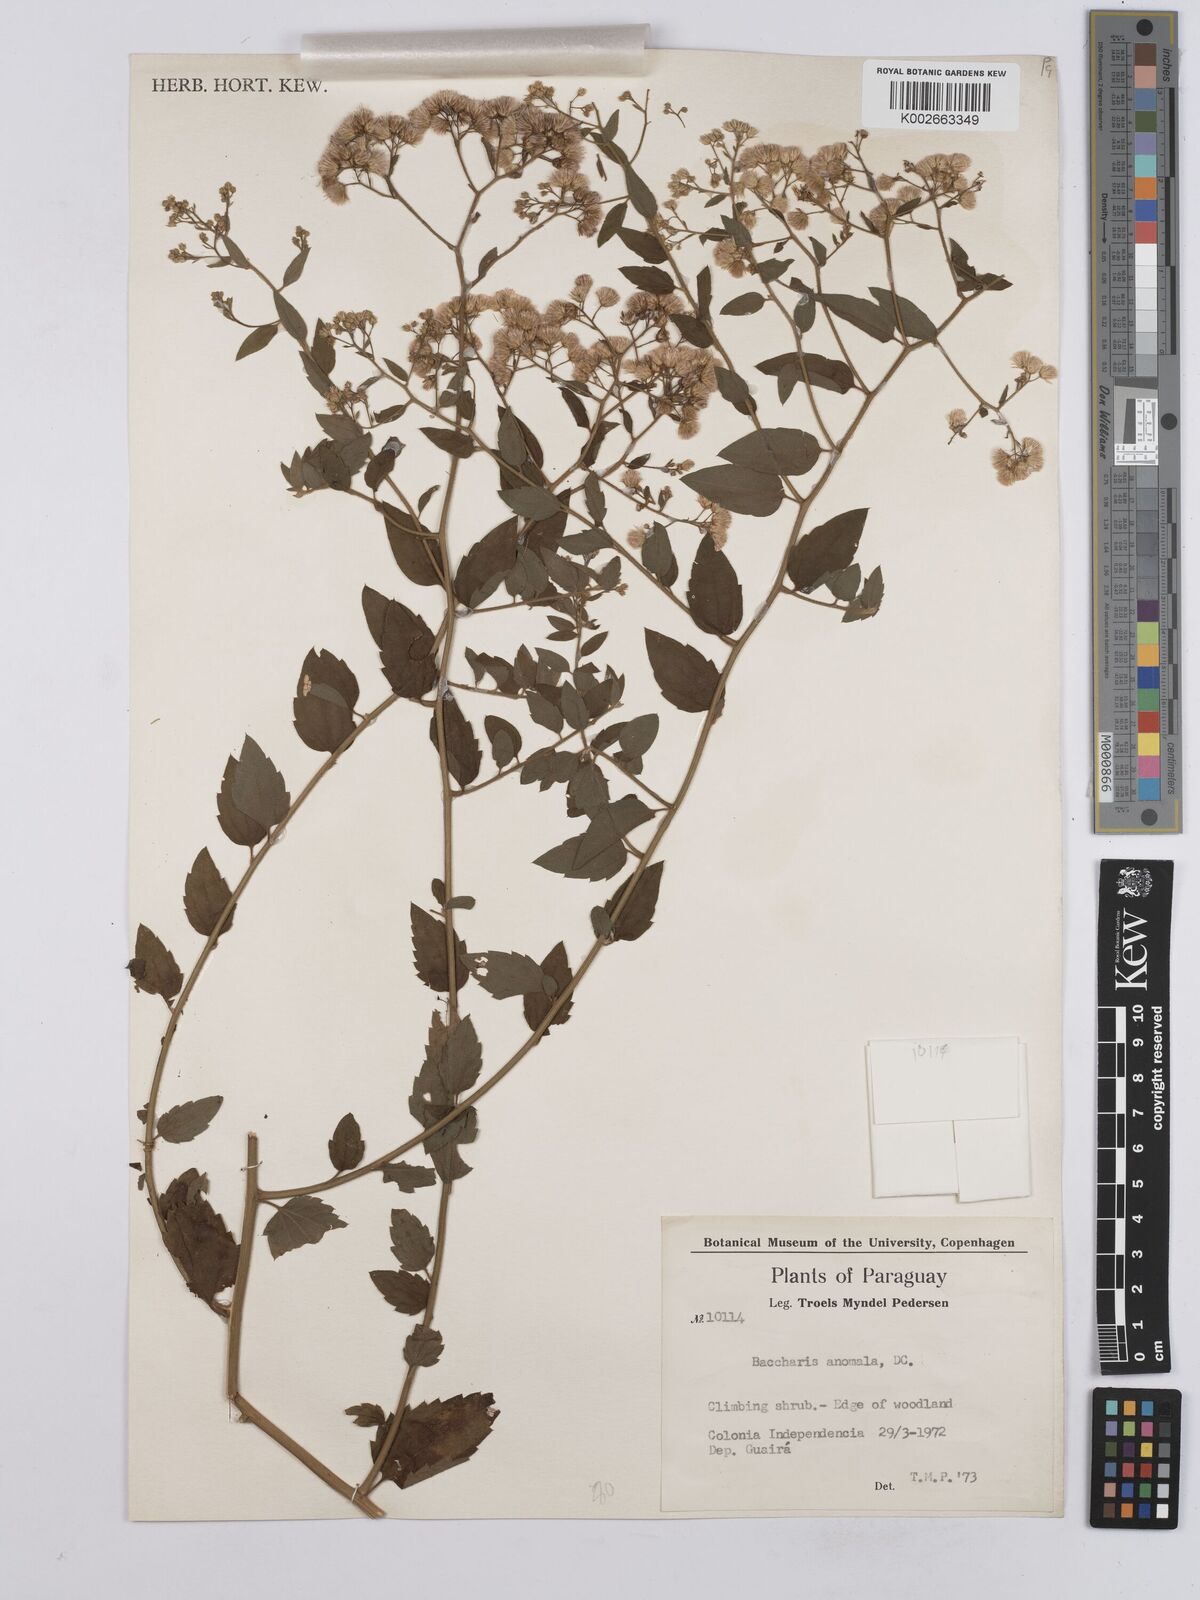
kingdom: Plantae
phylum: Tracheophyta
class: Magnoliopsida
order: Asterales
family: Asteraceae
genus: Baccharis
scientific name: Baccharis anomala
